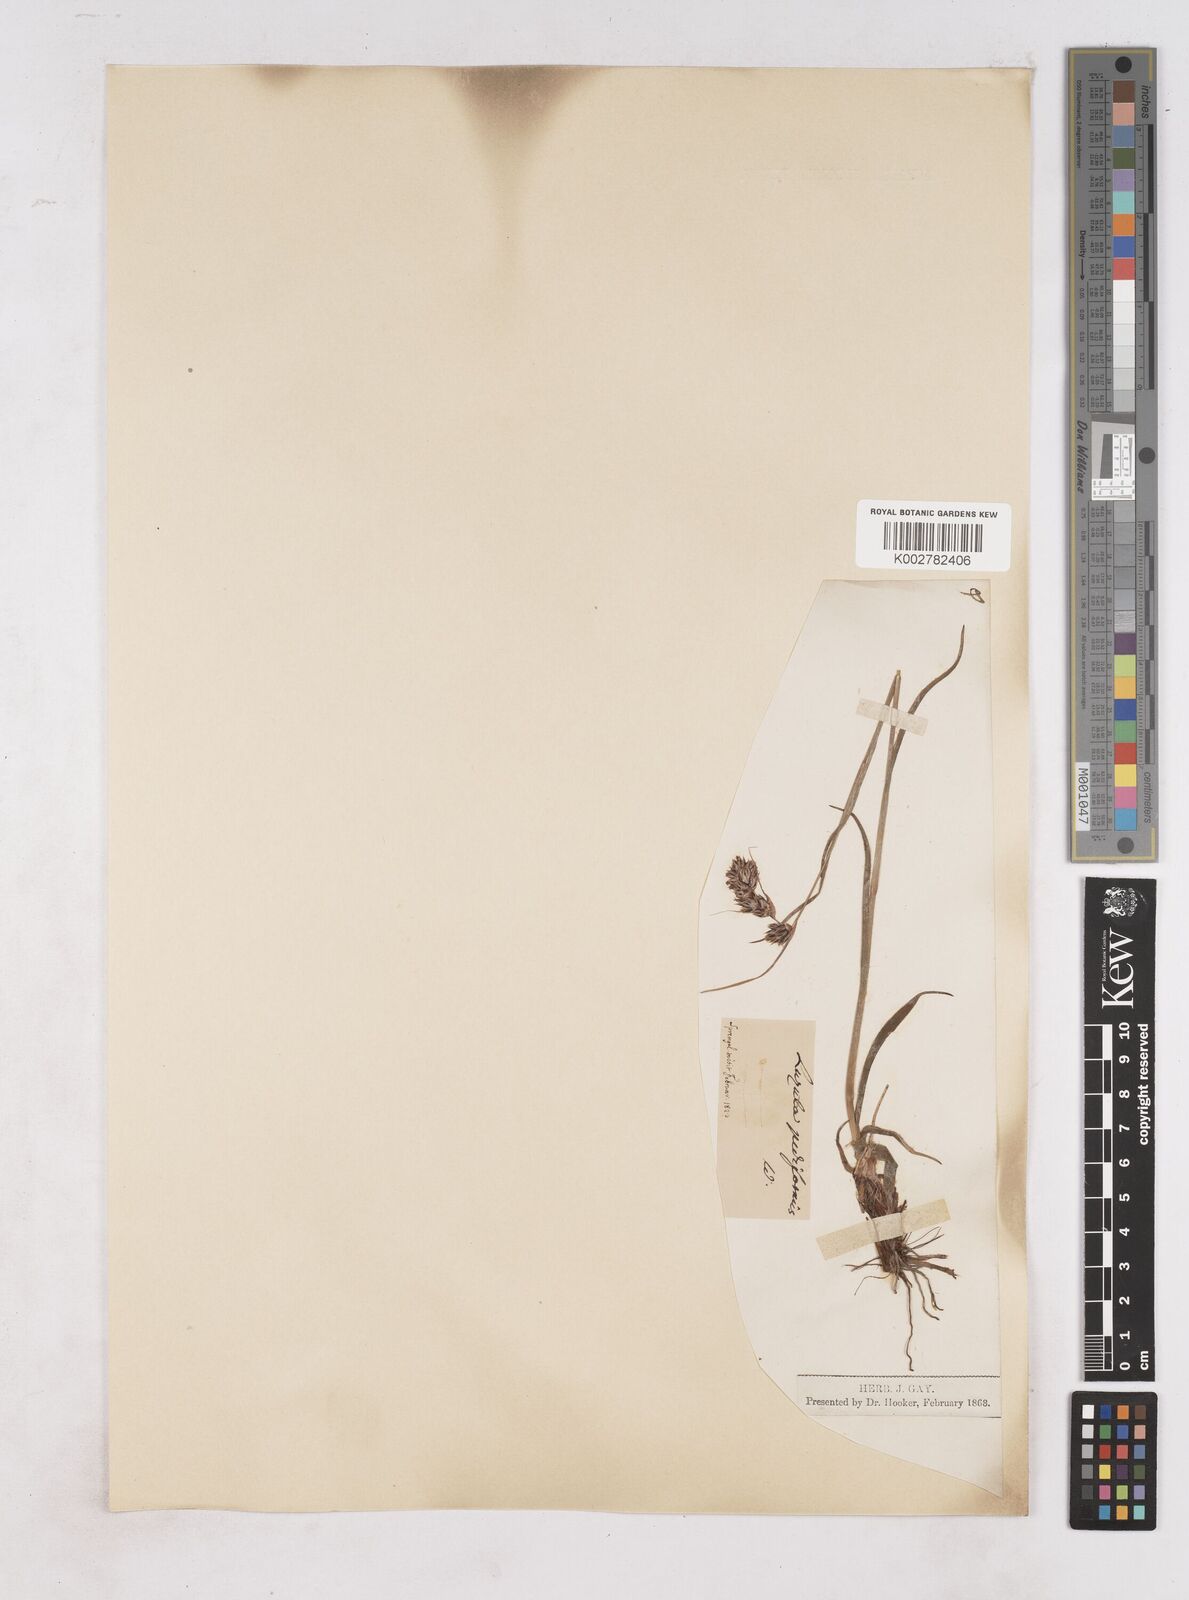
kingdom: Plantae
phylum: Tracheophyta
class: Liliopsida
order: Poales
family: Juncaceae
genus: Luzula
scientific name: Luzula pediformis
